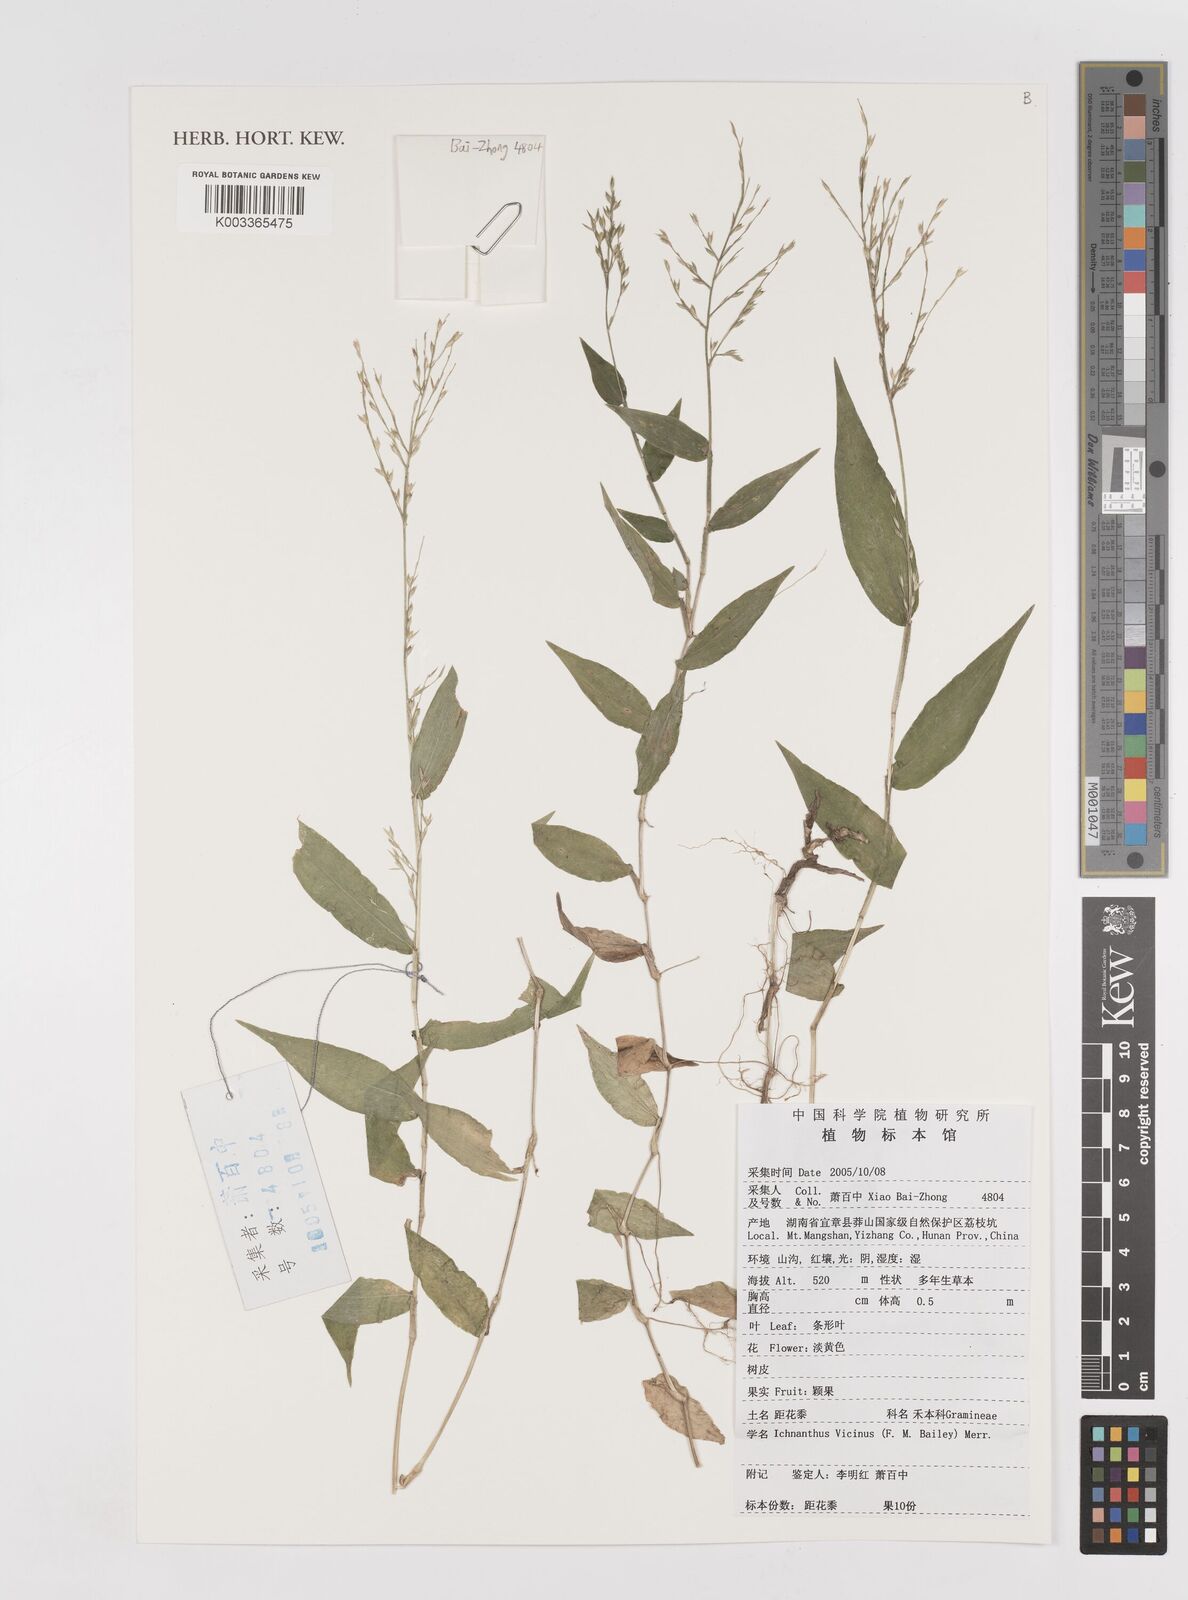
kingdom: Plantae
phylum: Tracheophyta
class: Liliopsida
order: Poales
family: Poaceae
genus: Ichnanthus
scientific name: Ichnanthus pallens
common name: Water grass
